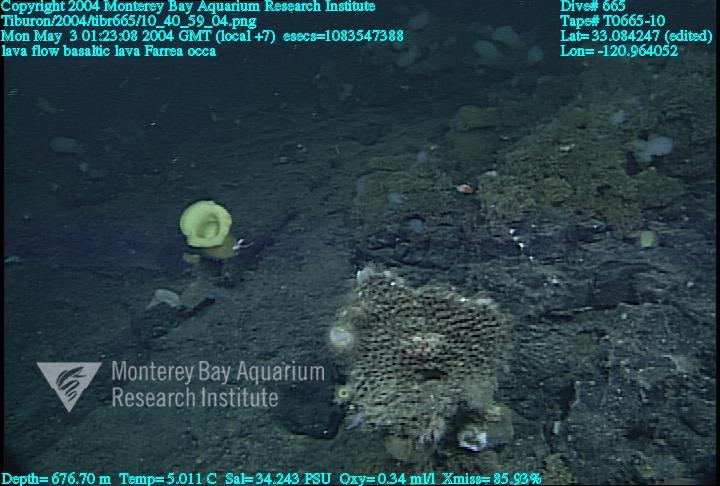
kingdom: Animalia
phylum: Porifera
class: Hexactinellida
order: Sceptrulophora
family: Farreidae
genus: Farrea
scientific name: Farrea occa
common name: Reversed glass sponge
